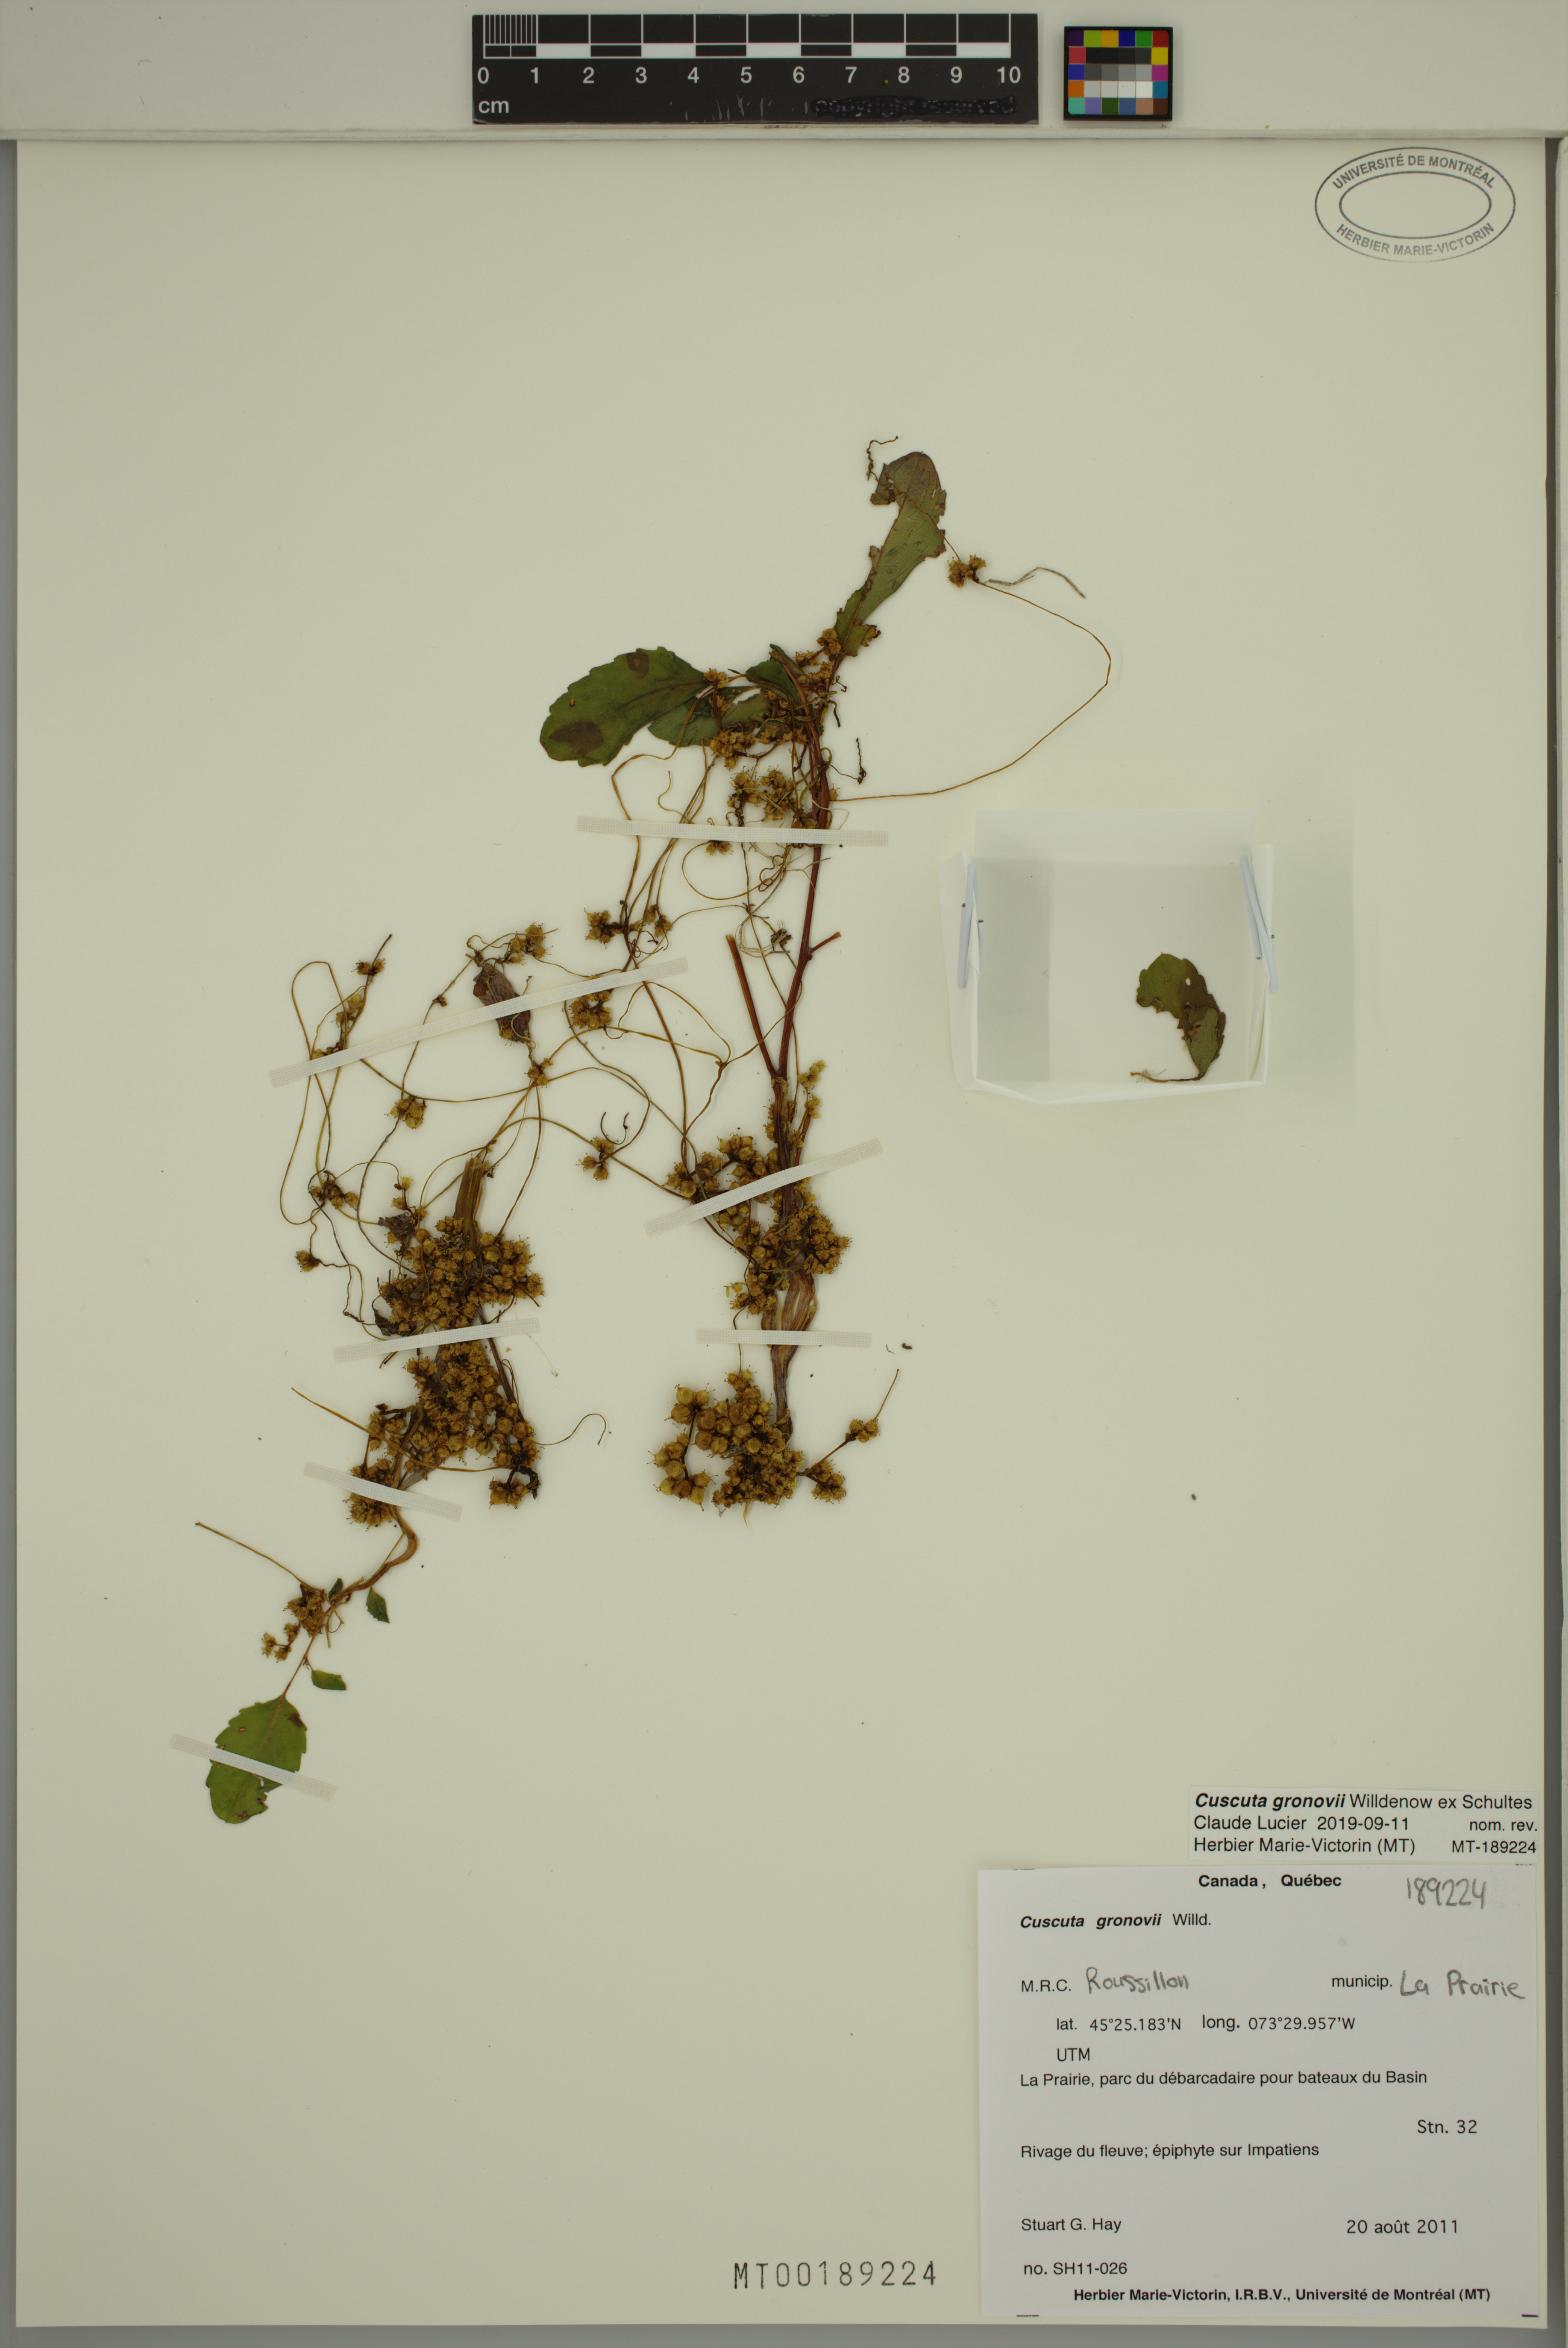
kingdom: Plantae
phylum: Tracheophyta
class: Magnoliopsida
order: Solanales
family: Convolvulaceae
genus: Cuscuta
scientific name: Cuscuta gronovii
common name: Common dodder
